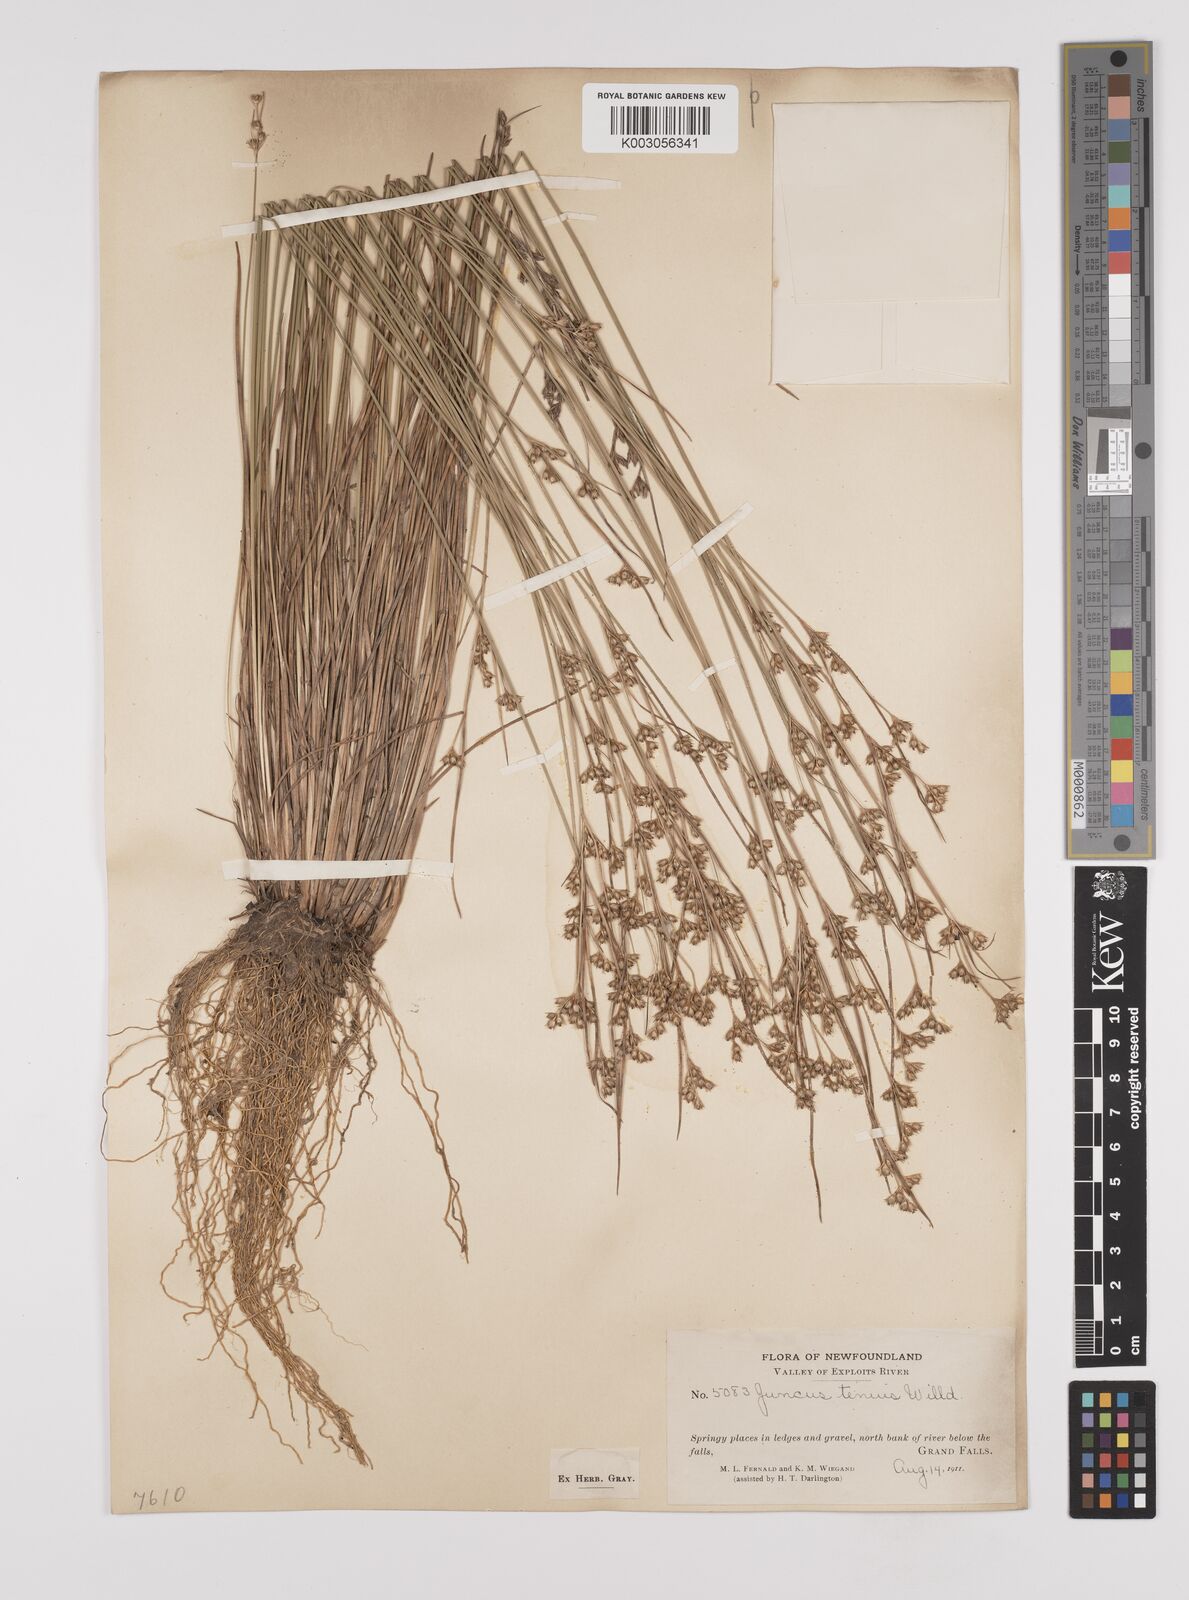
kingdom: Plantae
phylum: Tracheophyta
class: Liliopsida
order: Poales
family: Juncaceae
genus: Juncus
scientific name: Juncus tenuis
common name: Slender rush
